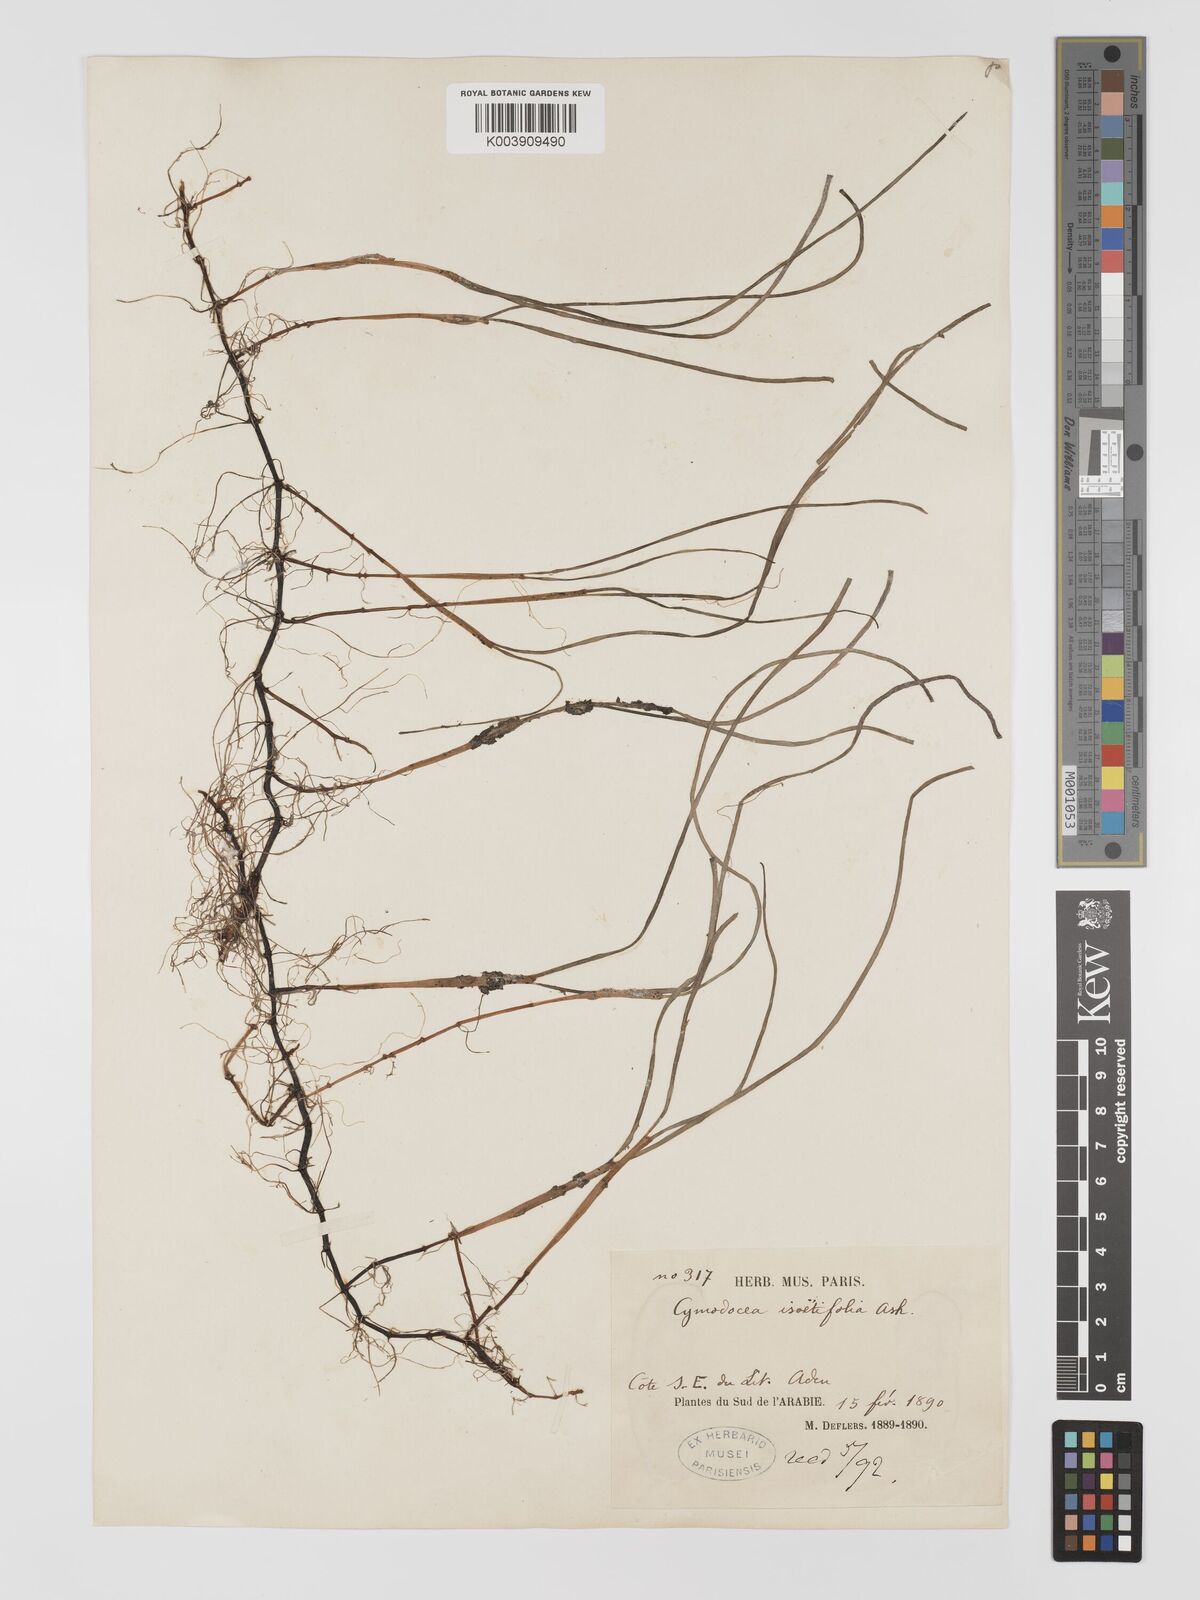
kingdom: Plantae
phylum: Tracheophyta
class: Liliopsida
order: Alismatales
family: Cymodoceaceae
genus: Syringodium
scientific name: Syringodium isoetifolium
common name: Species code: si
